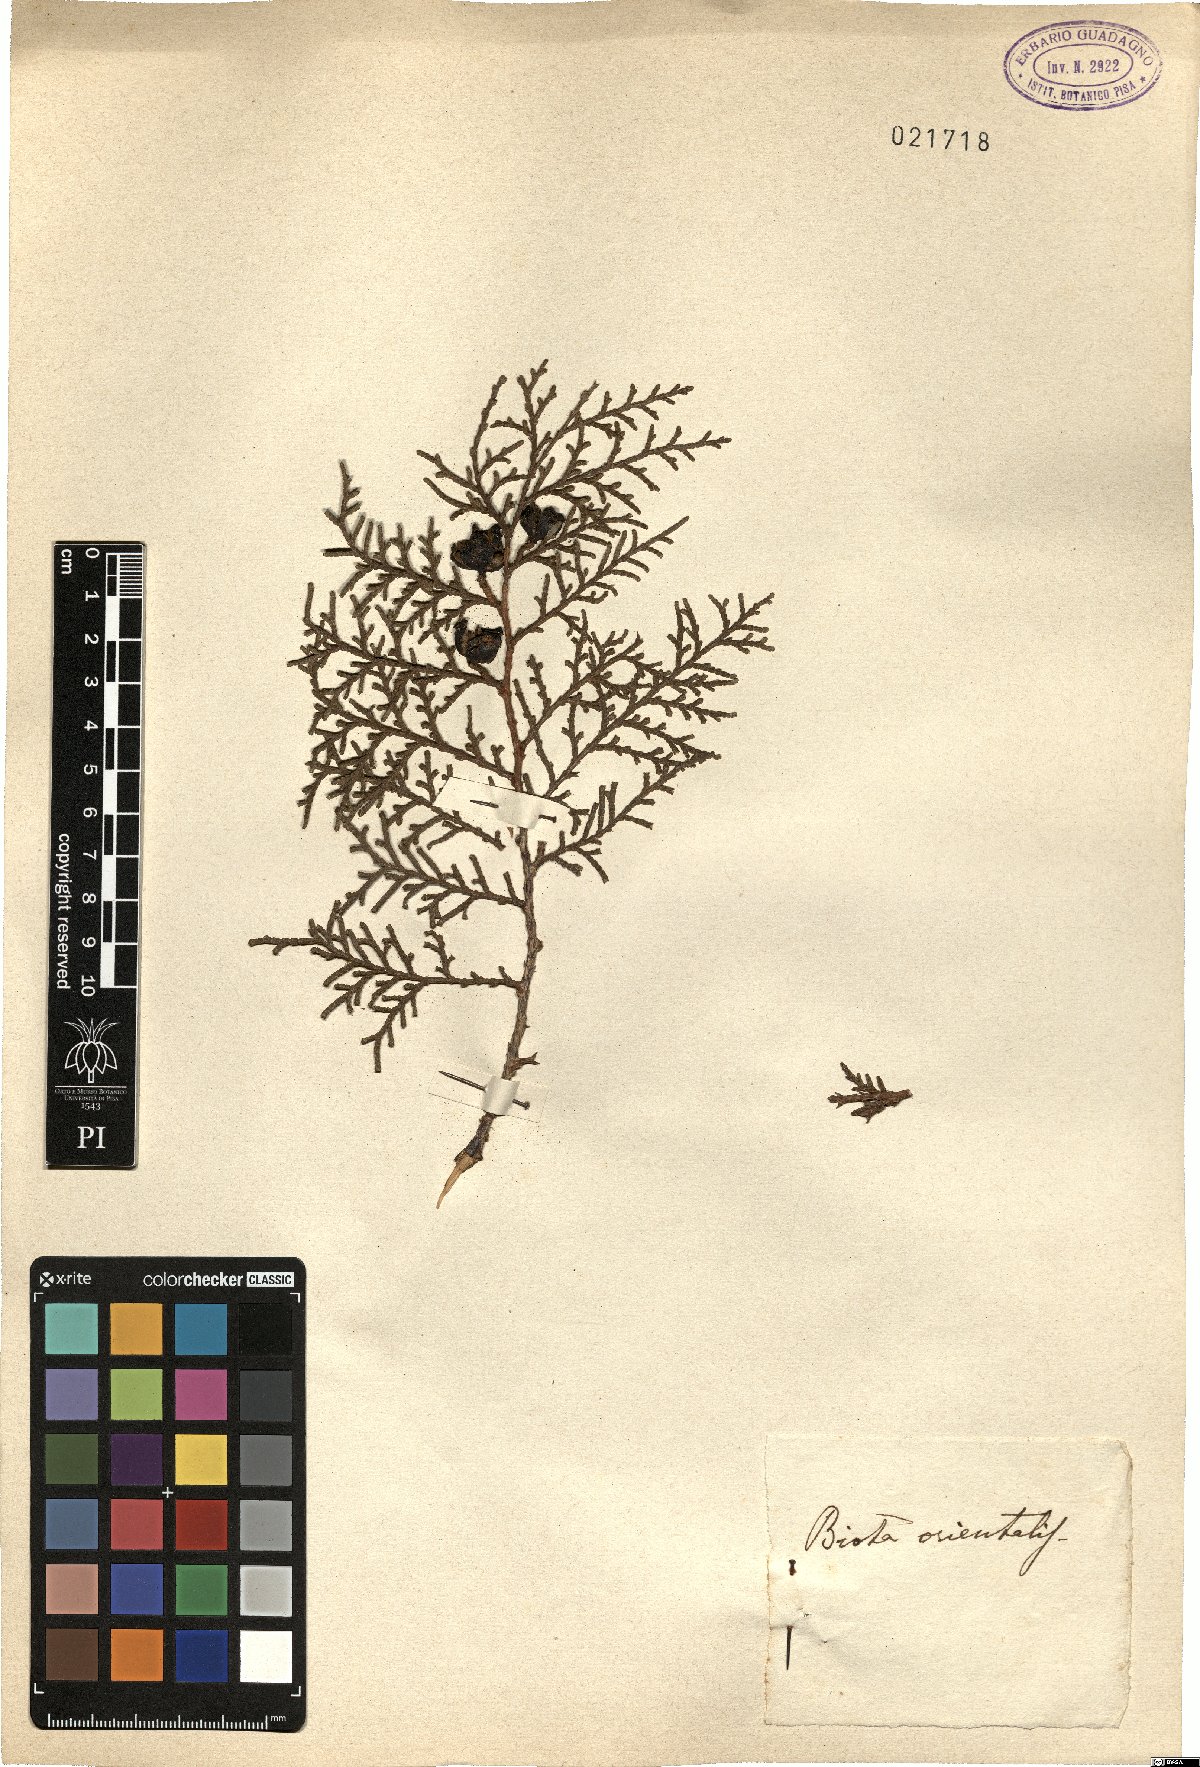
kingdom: Plantae
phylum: Tracheophyta
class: Pinopsida
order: Pinales
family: Cupressaceae
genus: Platycladus
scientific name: Platycladus orientalis
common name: Chinese thuja
